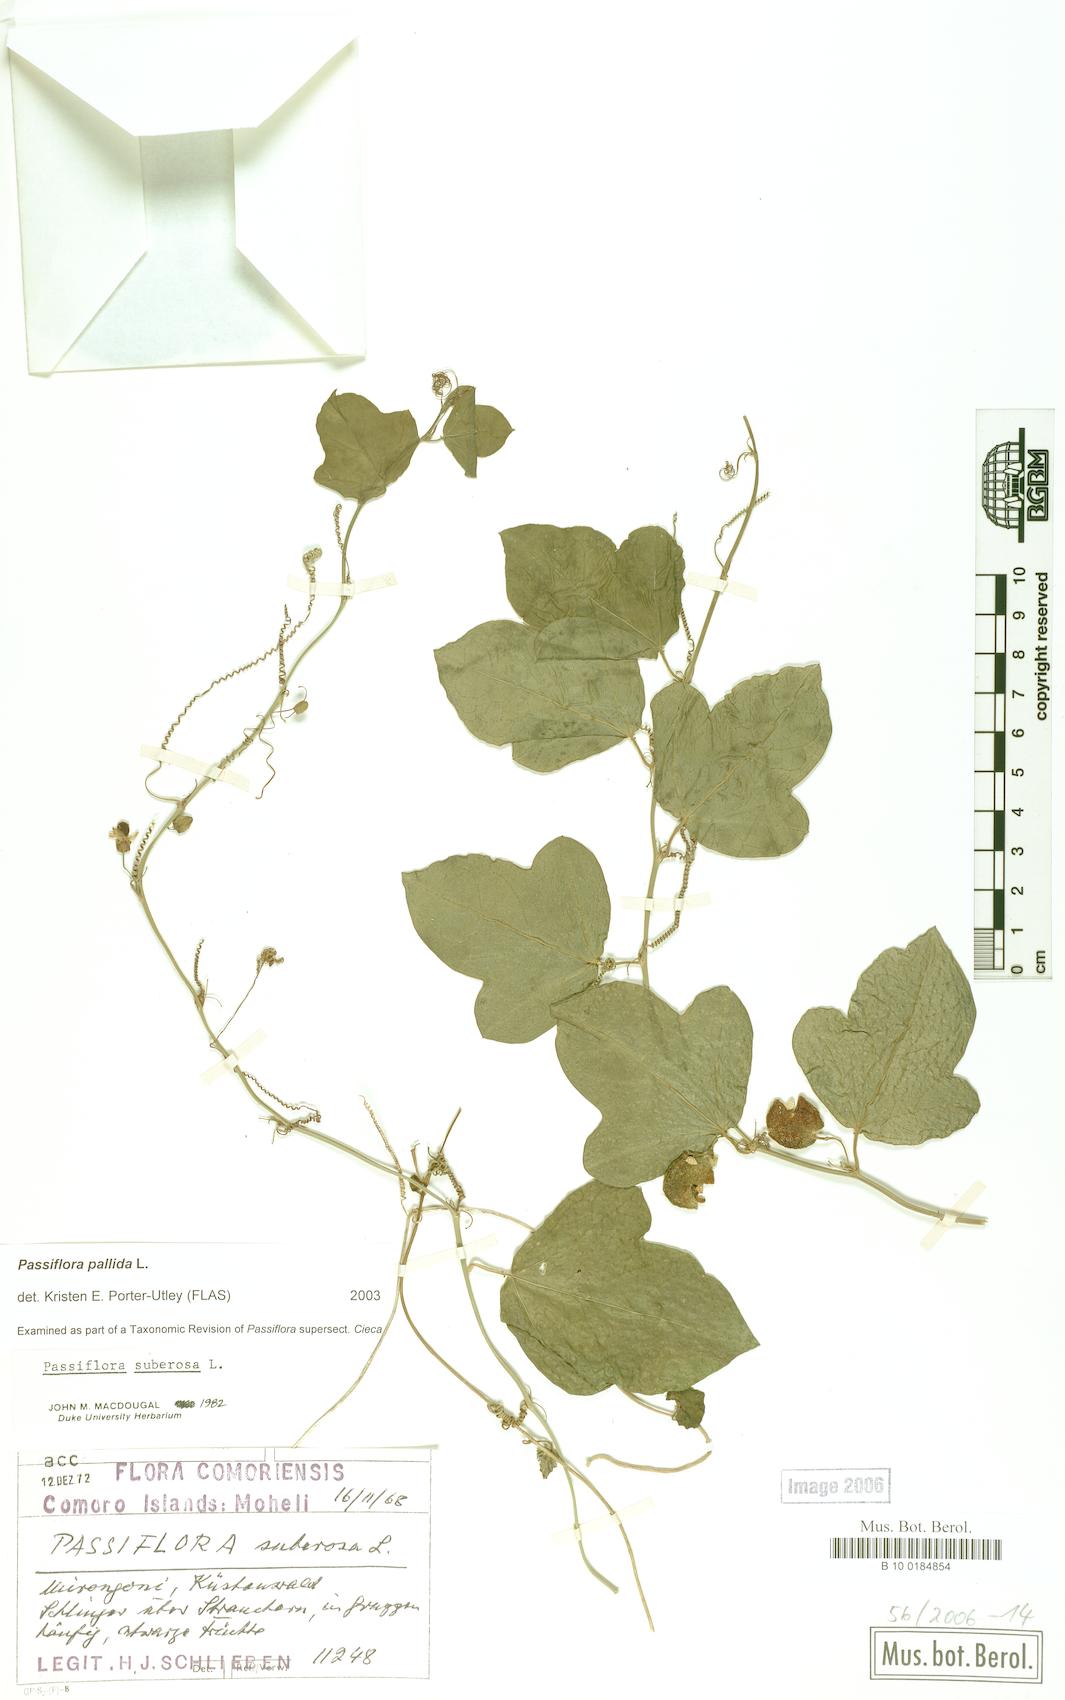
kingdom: Plantae
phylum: Tracheophyta
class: Magnoliopsida
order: Malpighiales
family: Passifloraceae
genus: Passiflora
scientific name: Passiflora pallida
